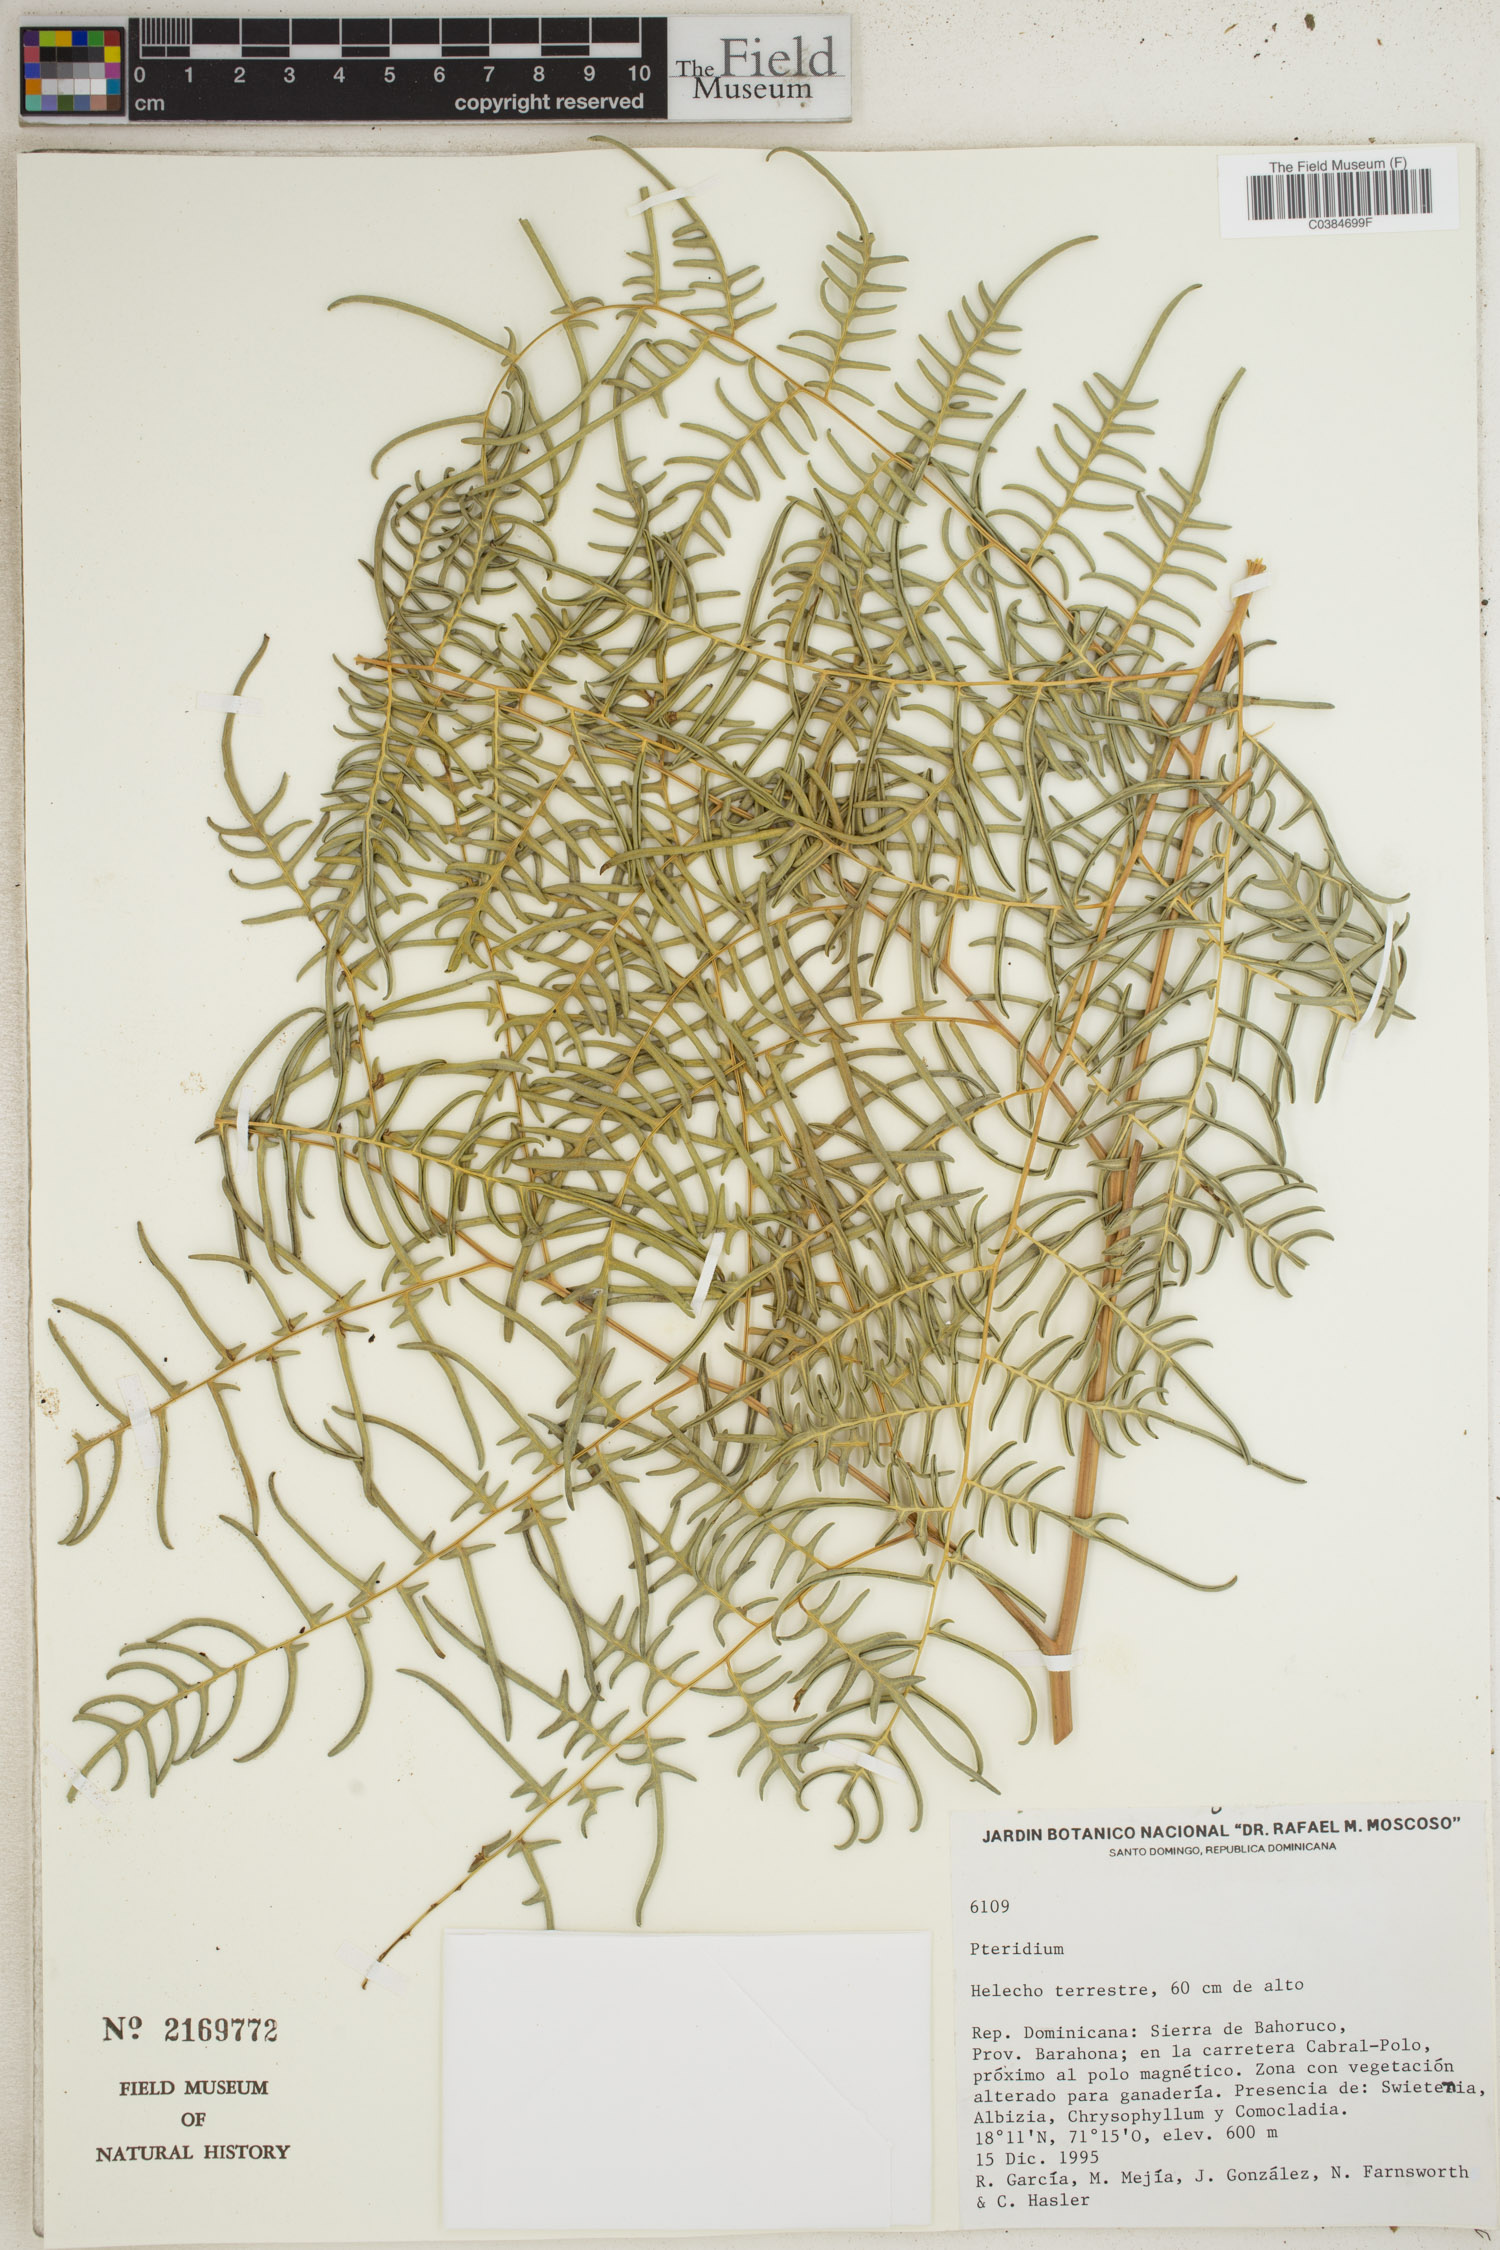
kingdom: Plantae
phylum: Tracheophyta
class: Polypodiopsida
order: Polypodiales
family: Dennstaedtiaceae
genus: Pteridium
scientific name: Pteridium
